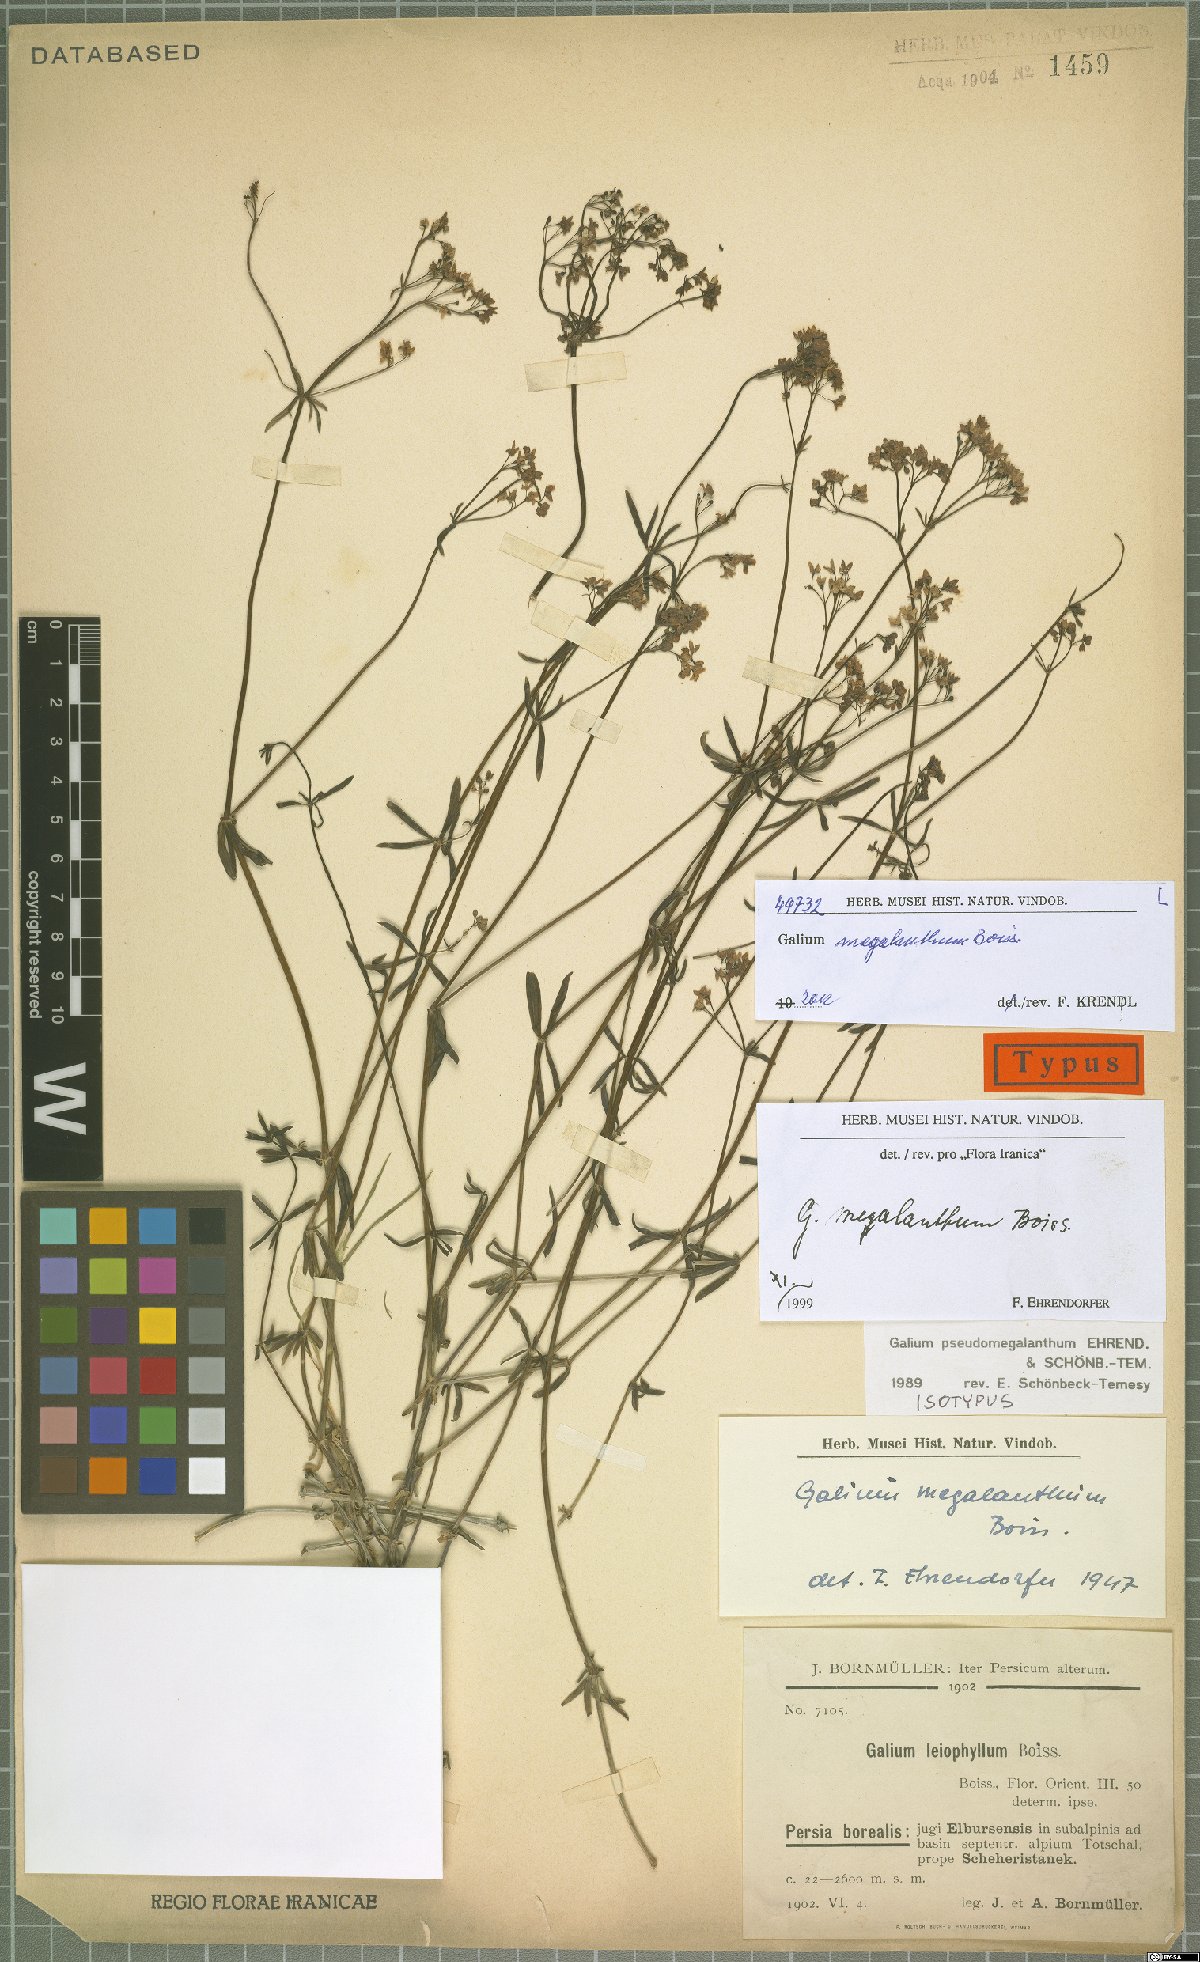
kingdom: Plantae
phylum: Tracheophyta
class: Magnoliopsida
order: Gentianales
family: Rubiaceae
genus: Galium
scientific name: Galium megalanthum
